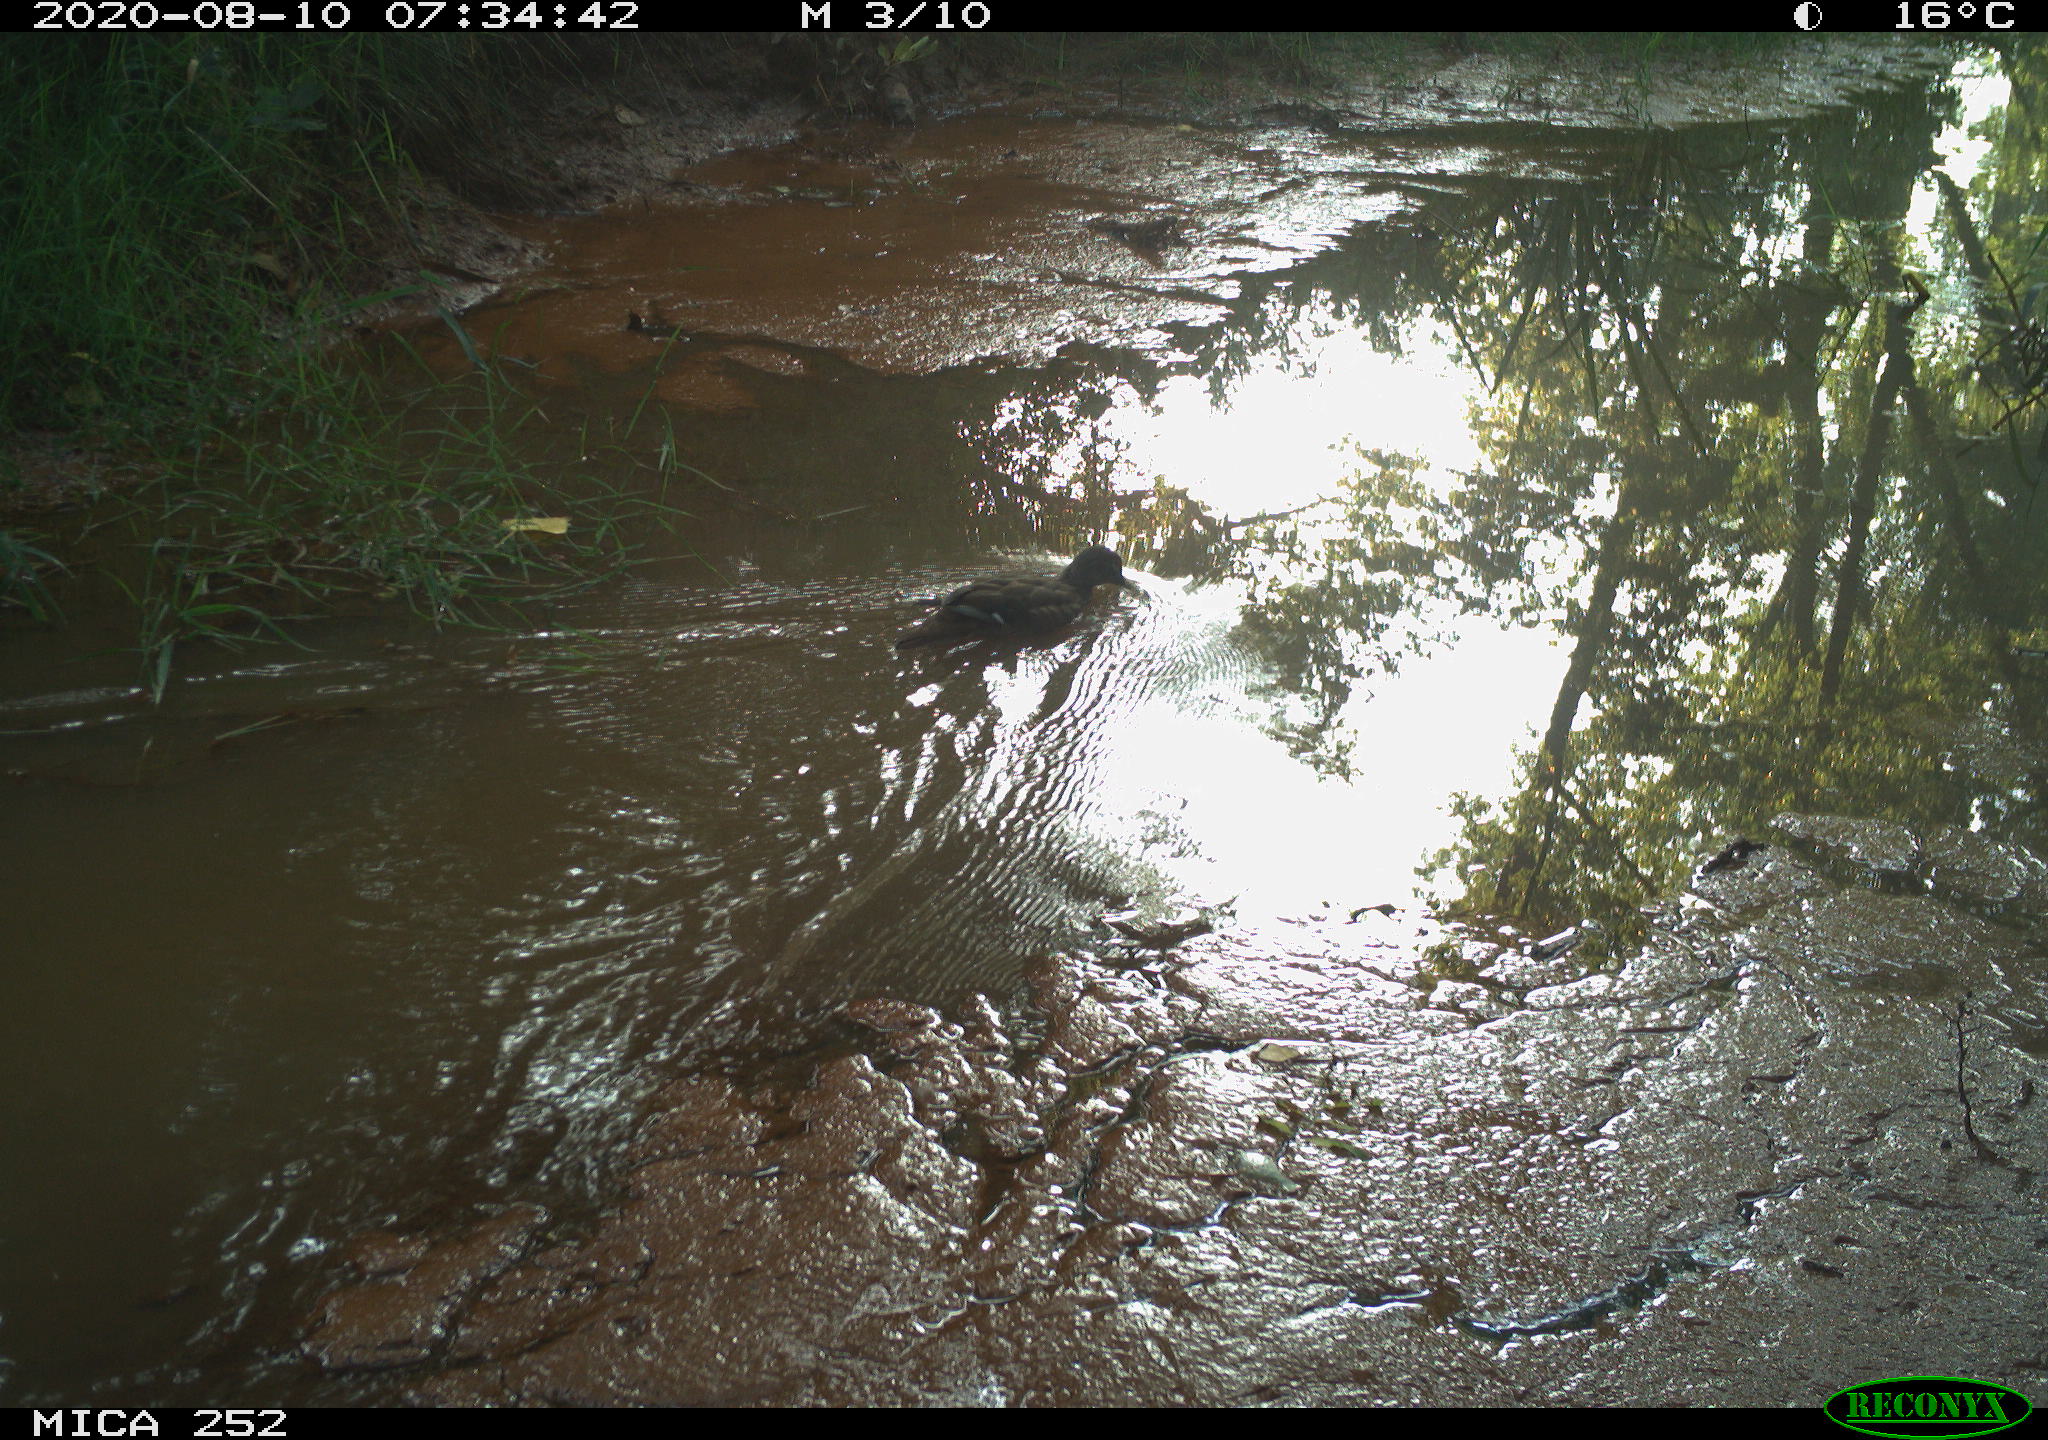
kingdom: Animalia
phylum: Chordata
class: Aves
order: Anseriformes
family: Anatidae
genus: Aix
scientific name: Aix galericulata
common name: Mandarin duck
